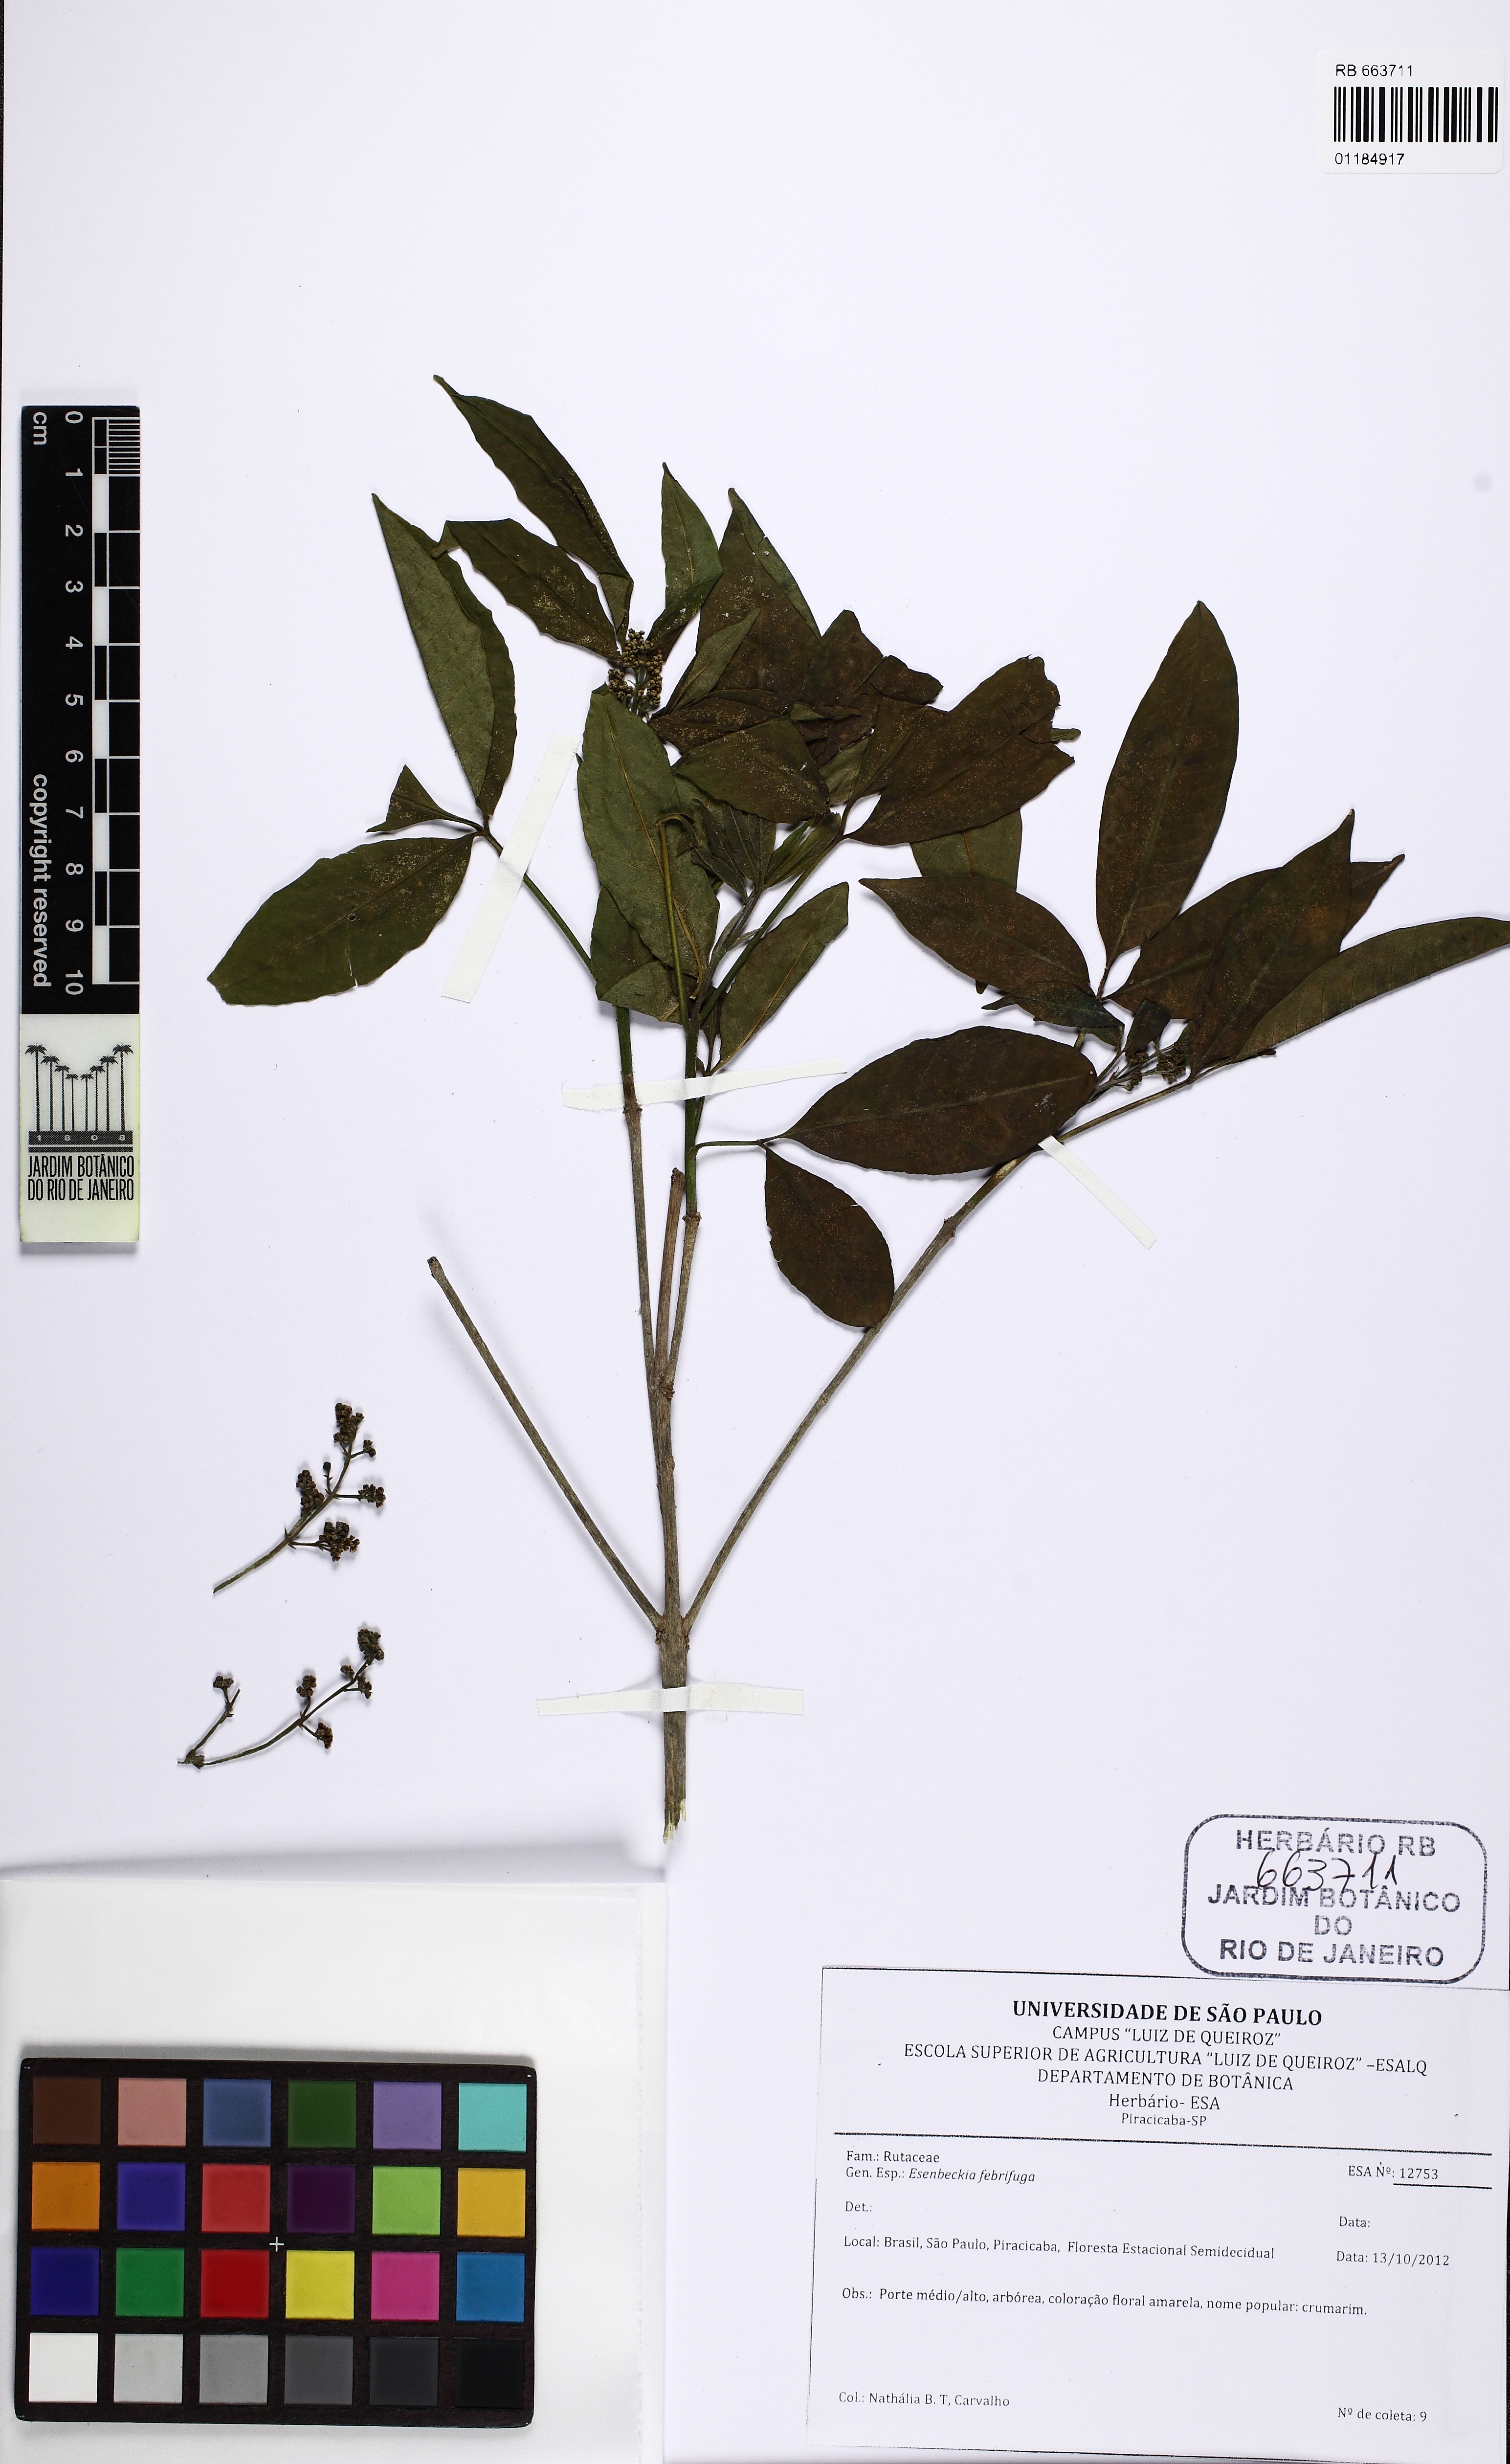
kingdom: Plantae
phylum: Tracheophyta
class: Magnoliopsida
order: Sapindales
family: Rutaceae
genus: Esenbeckia
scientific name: Esenbeckia febrifuga
